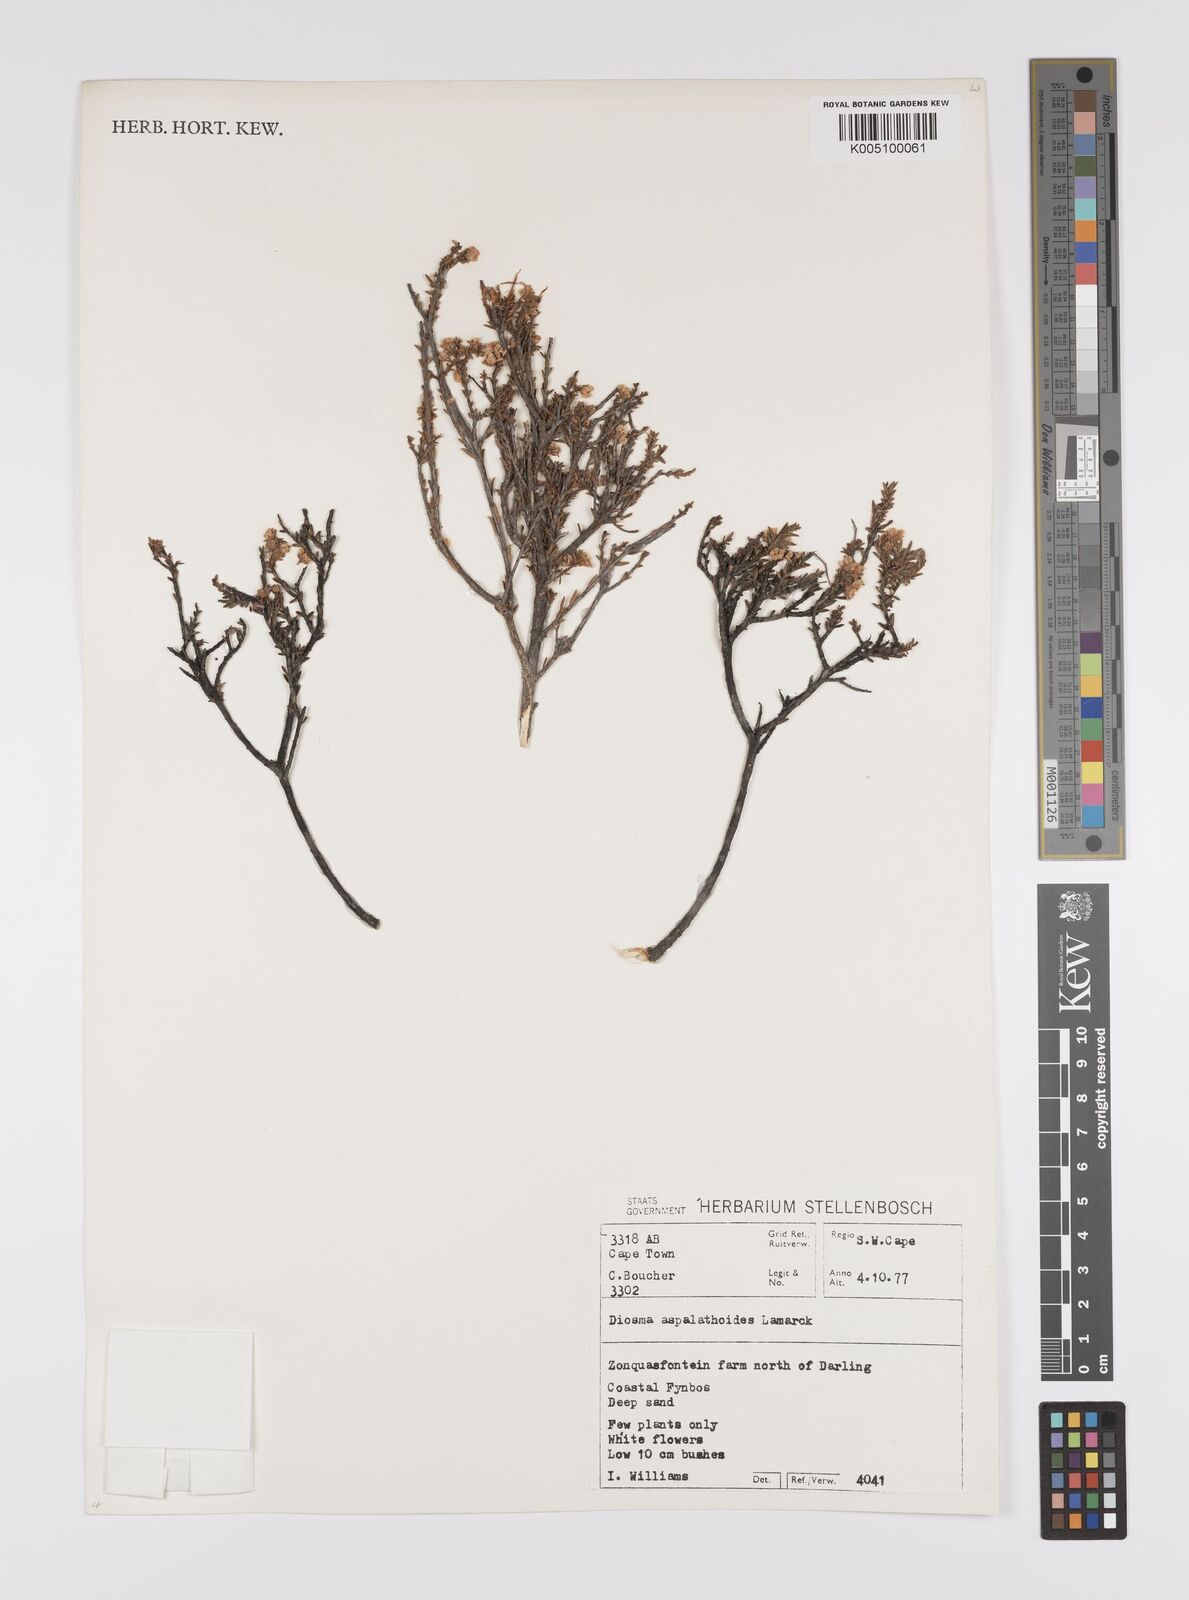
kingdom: Plantae
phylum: Tracheophyta
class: Magnoliopsida
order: Sapindales
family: Rutaceae
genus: Diosma
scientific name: Diosma aspalathoides
